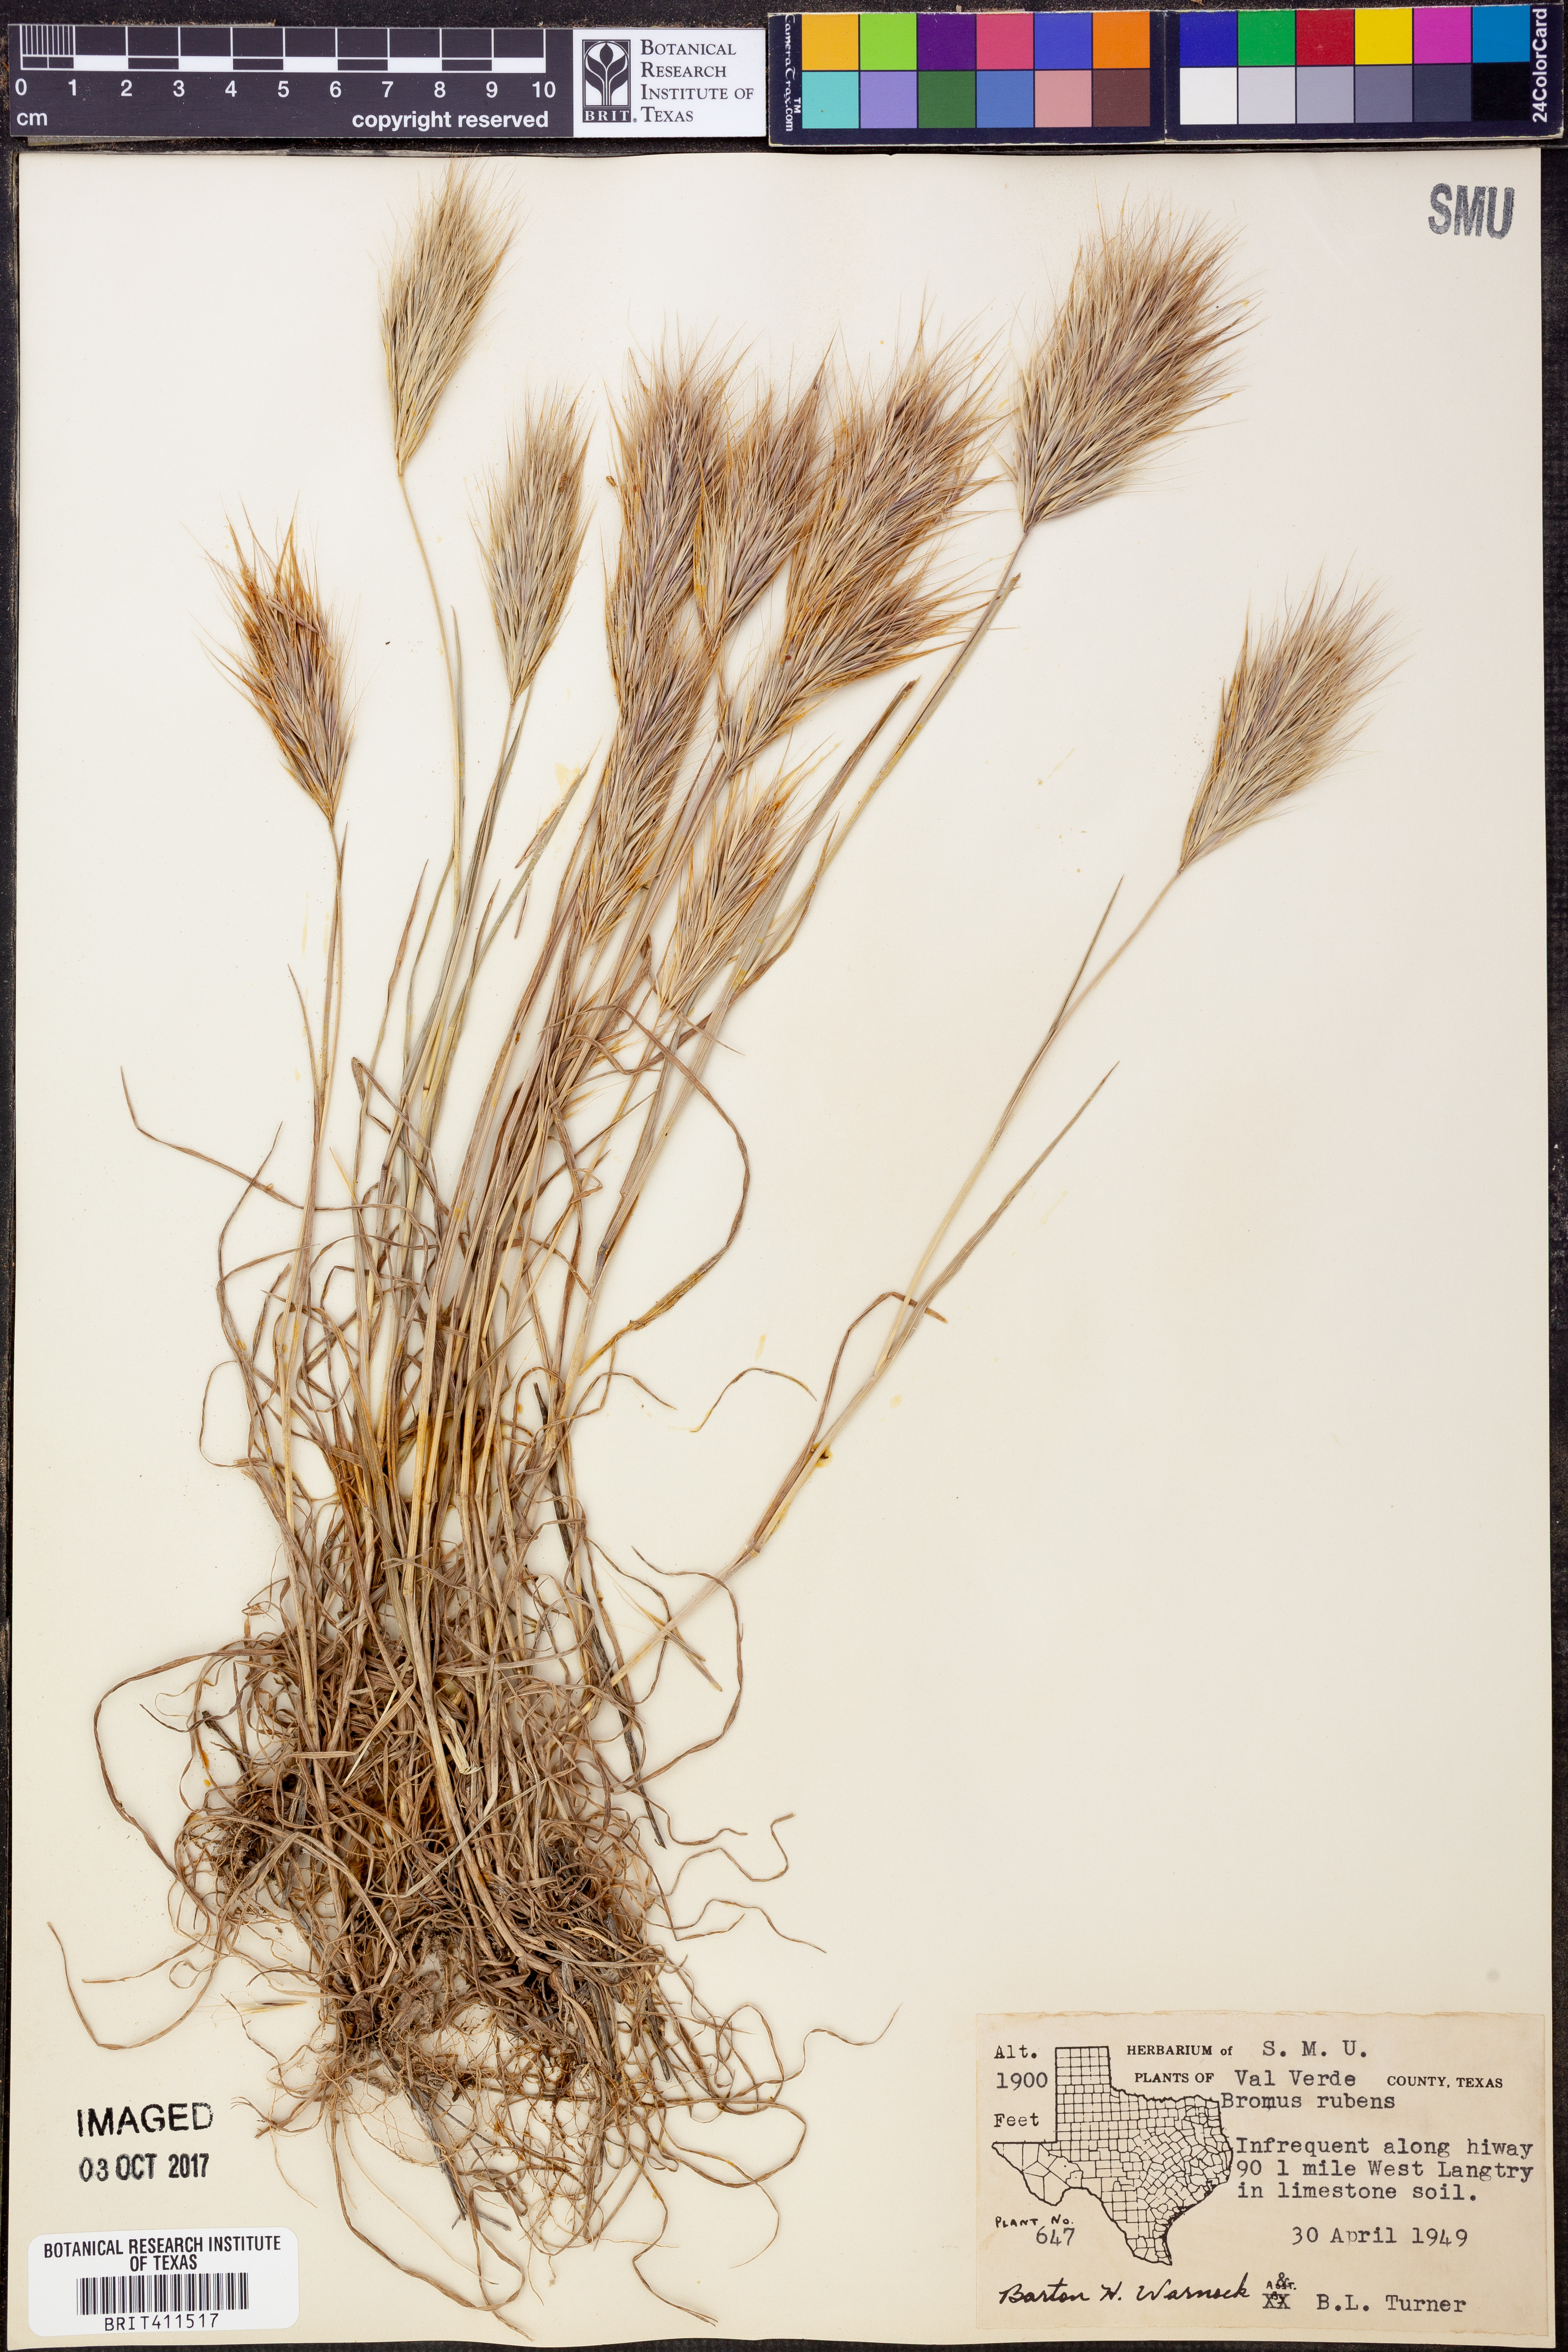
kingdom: Plantae
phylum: Tracheophyta
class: Liliopsida
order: Poales
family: Poaceae
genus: Bromus
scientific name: Bromus rubens
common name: Red brome
